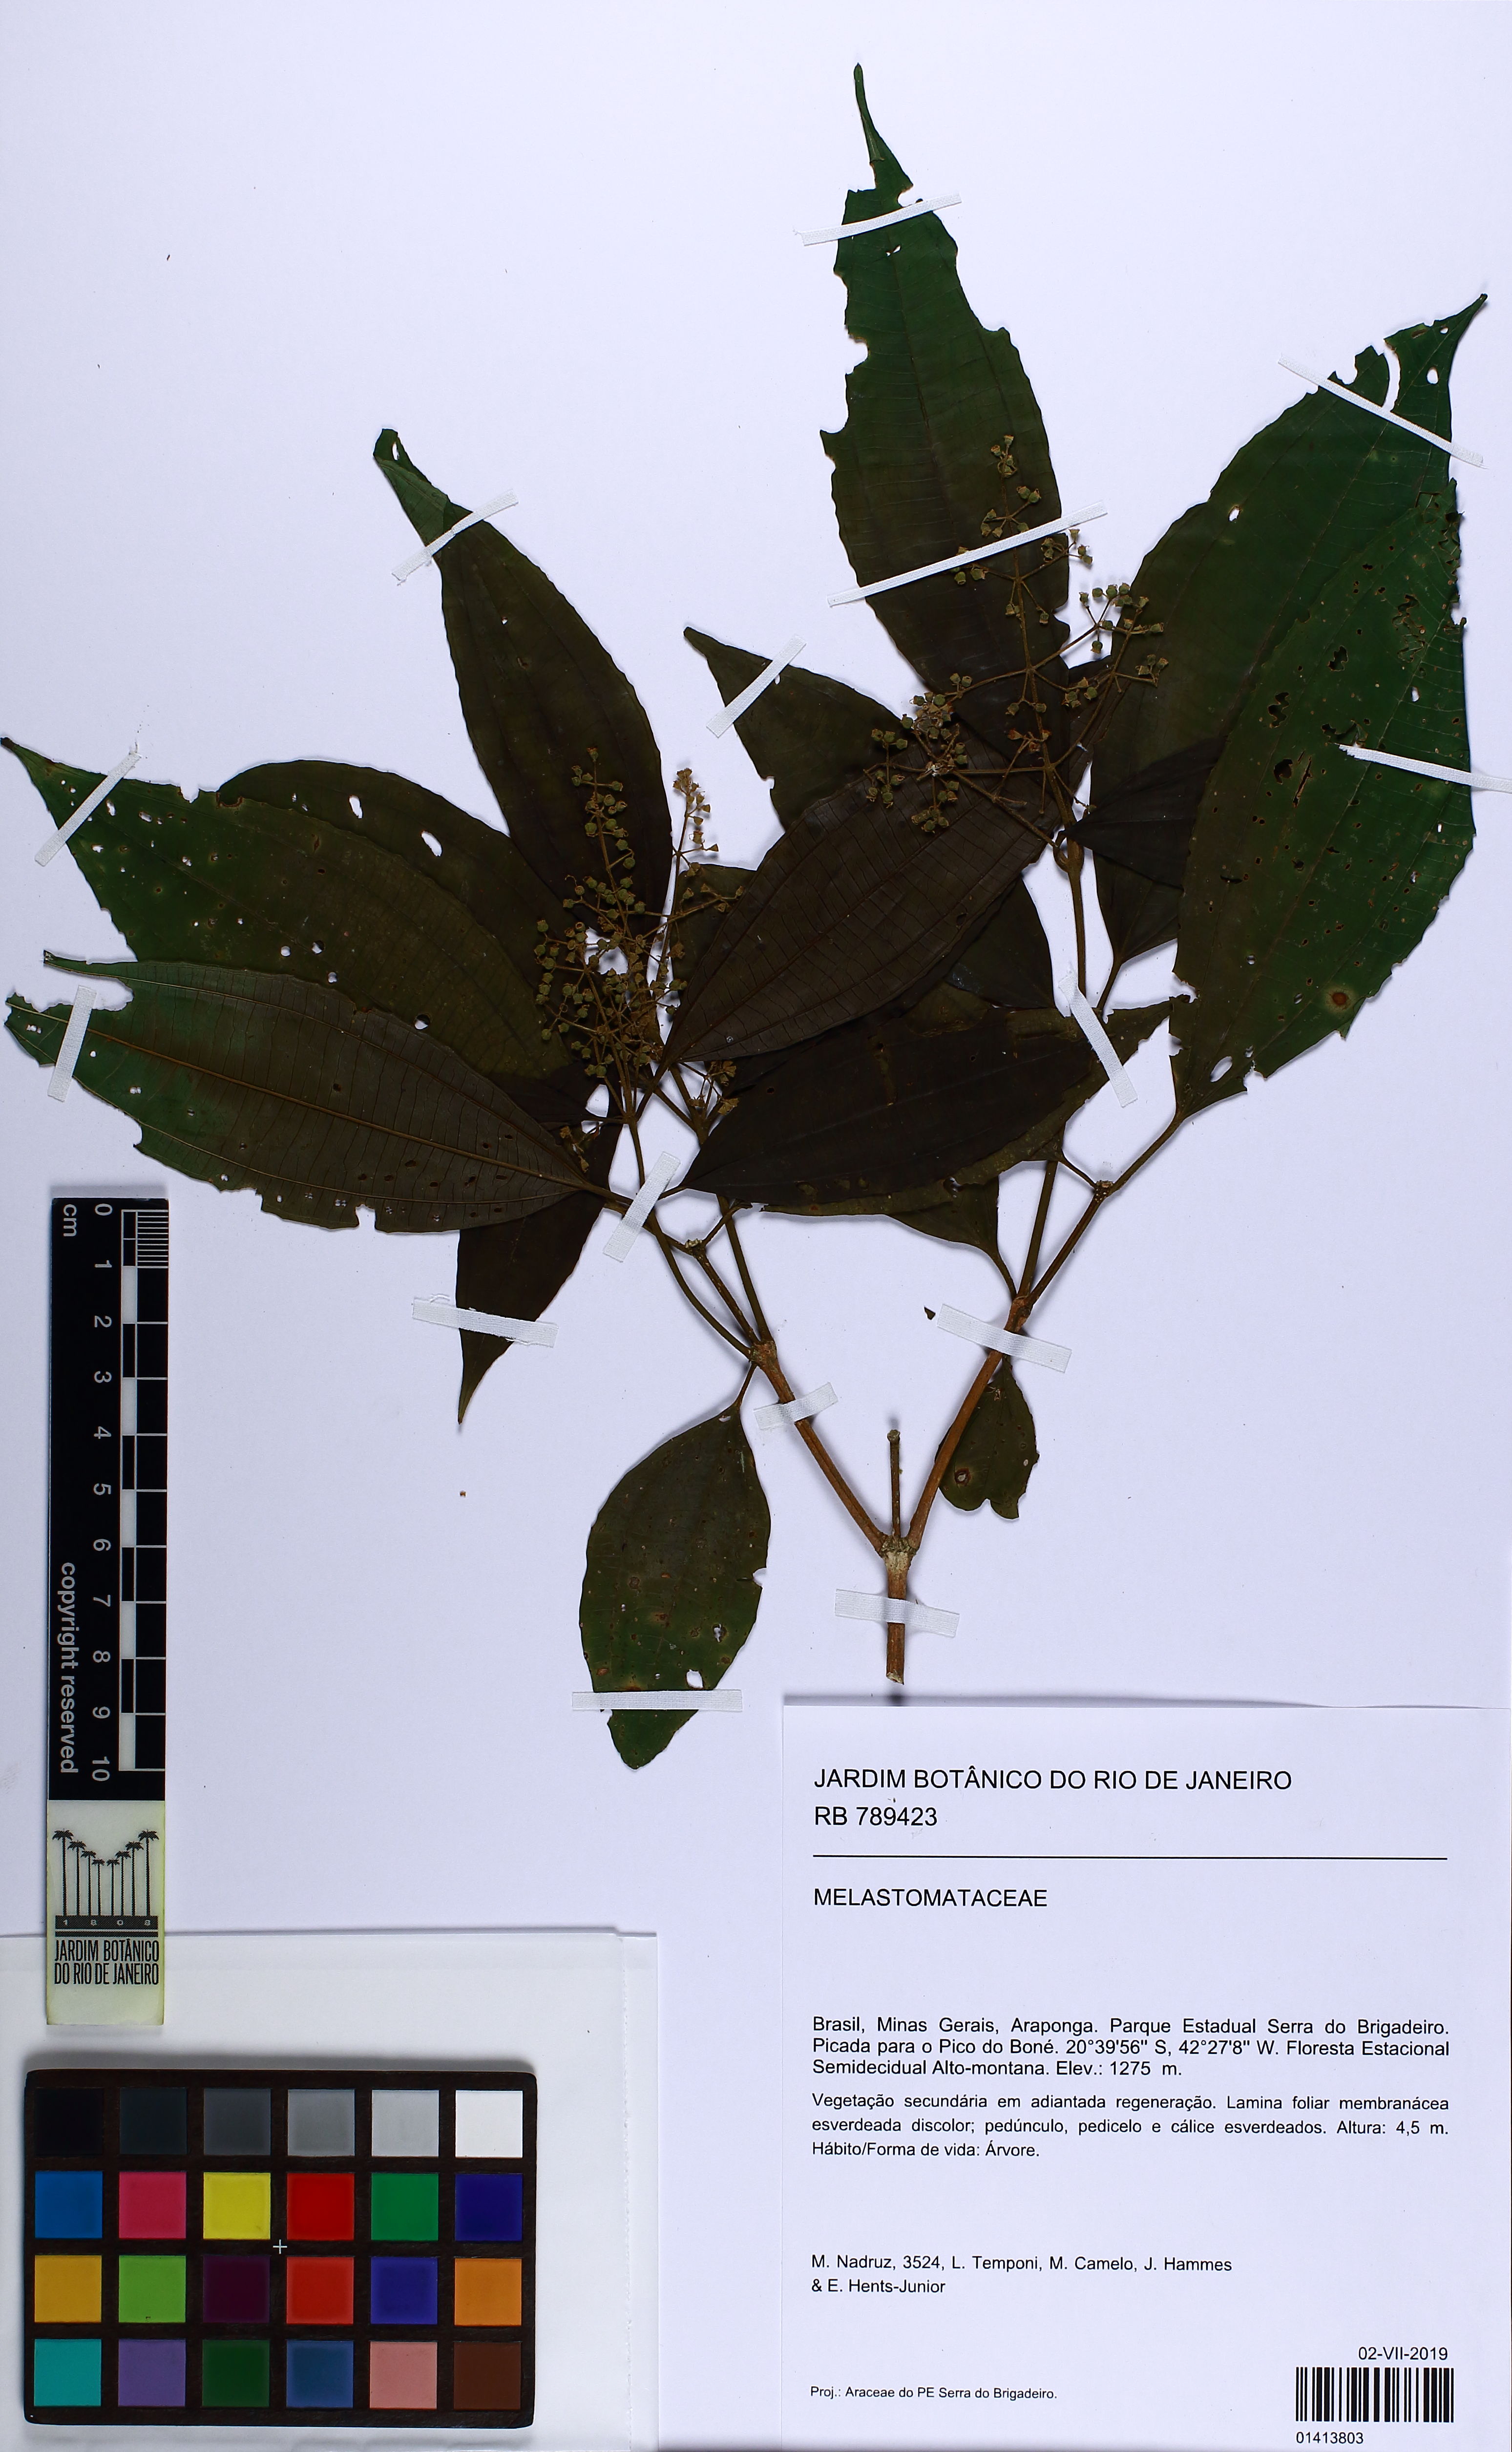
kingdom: Plantae
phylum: Tracheophyta
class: Magnoliopsida
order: Myrtales
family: Melastomataceae
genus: Miconia
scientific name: Miconia lateriflora
